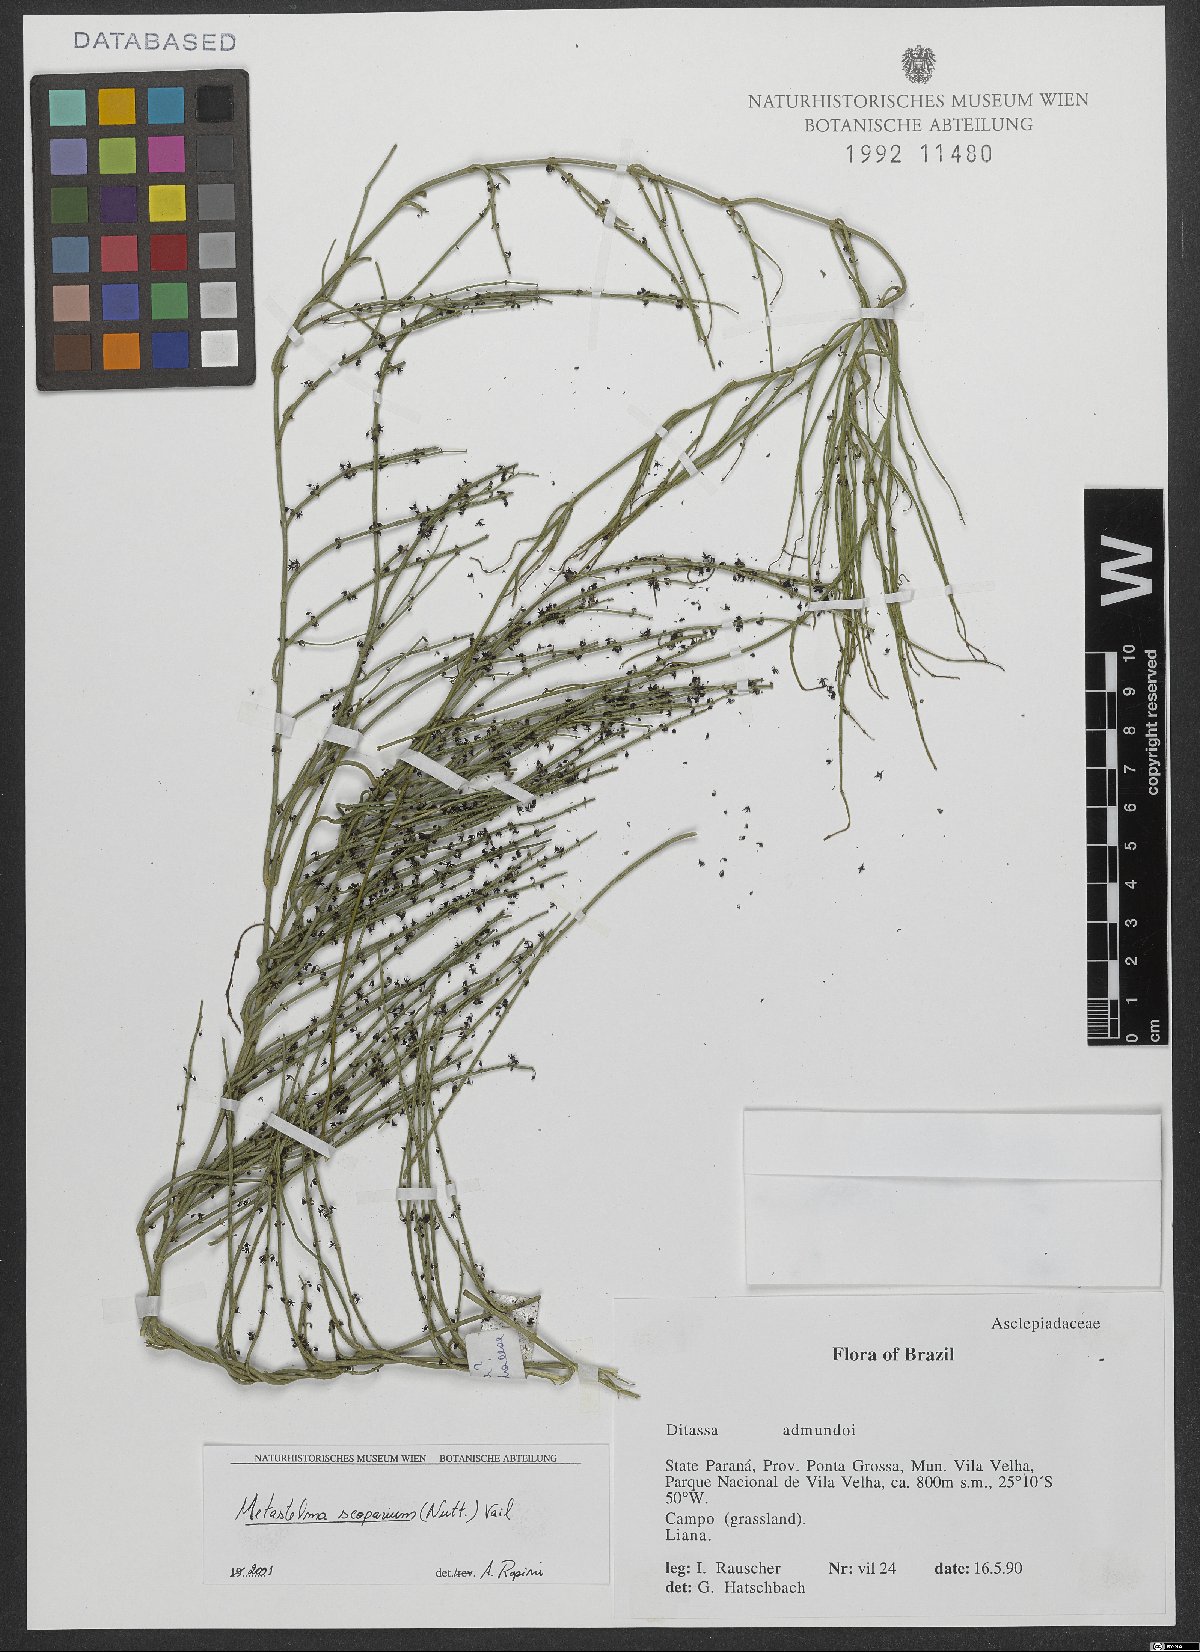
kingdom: Plantae
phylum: Tracheophyta
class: Magnoliopsida
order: Gentianales
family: Apocynaceae
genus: Orthosia
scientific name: Orthosia scoparia
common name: Leafless swallow-wort
